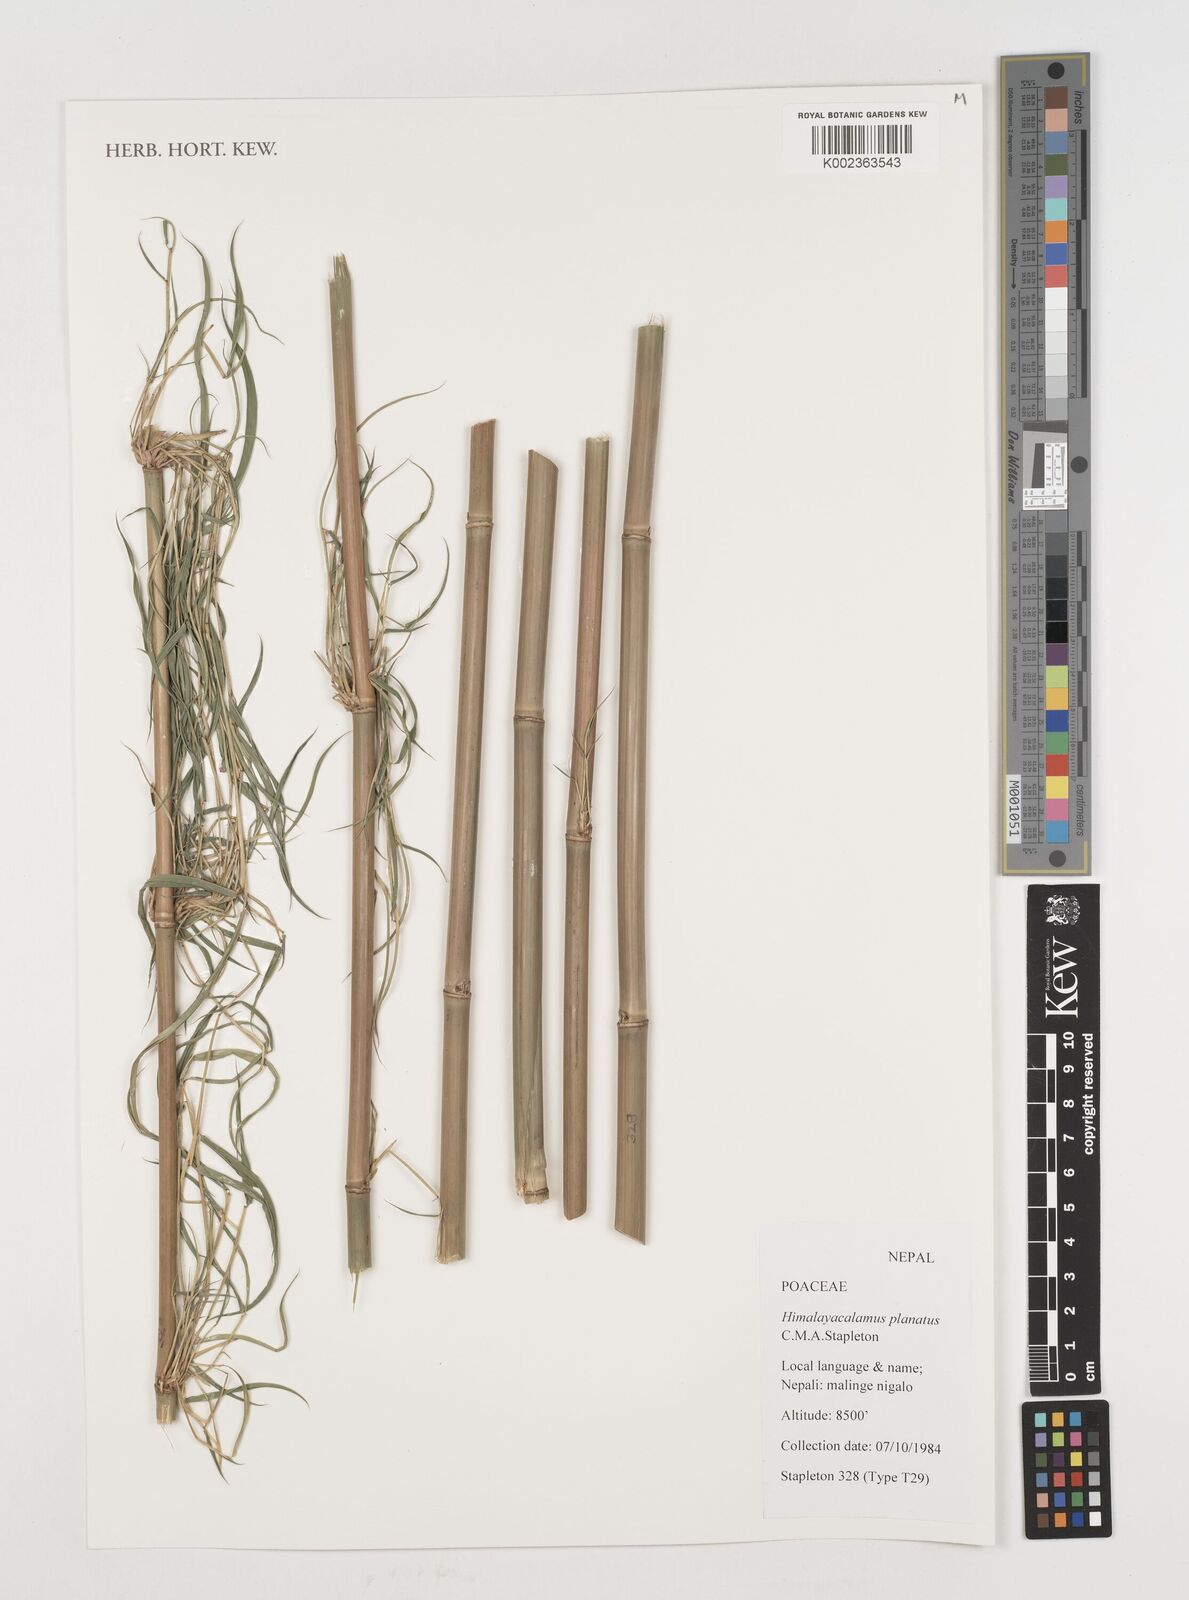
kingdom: Plantae
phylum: Tracheophyta
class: Liliopsida
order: Poales
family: Poaceae
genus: Himalayacalamus
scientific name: Himalayacalamus fimbriatus
